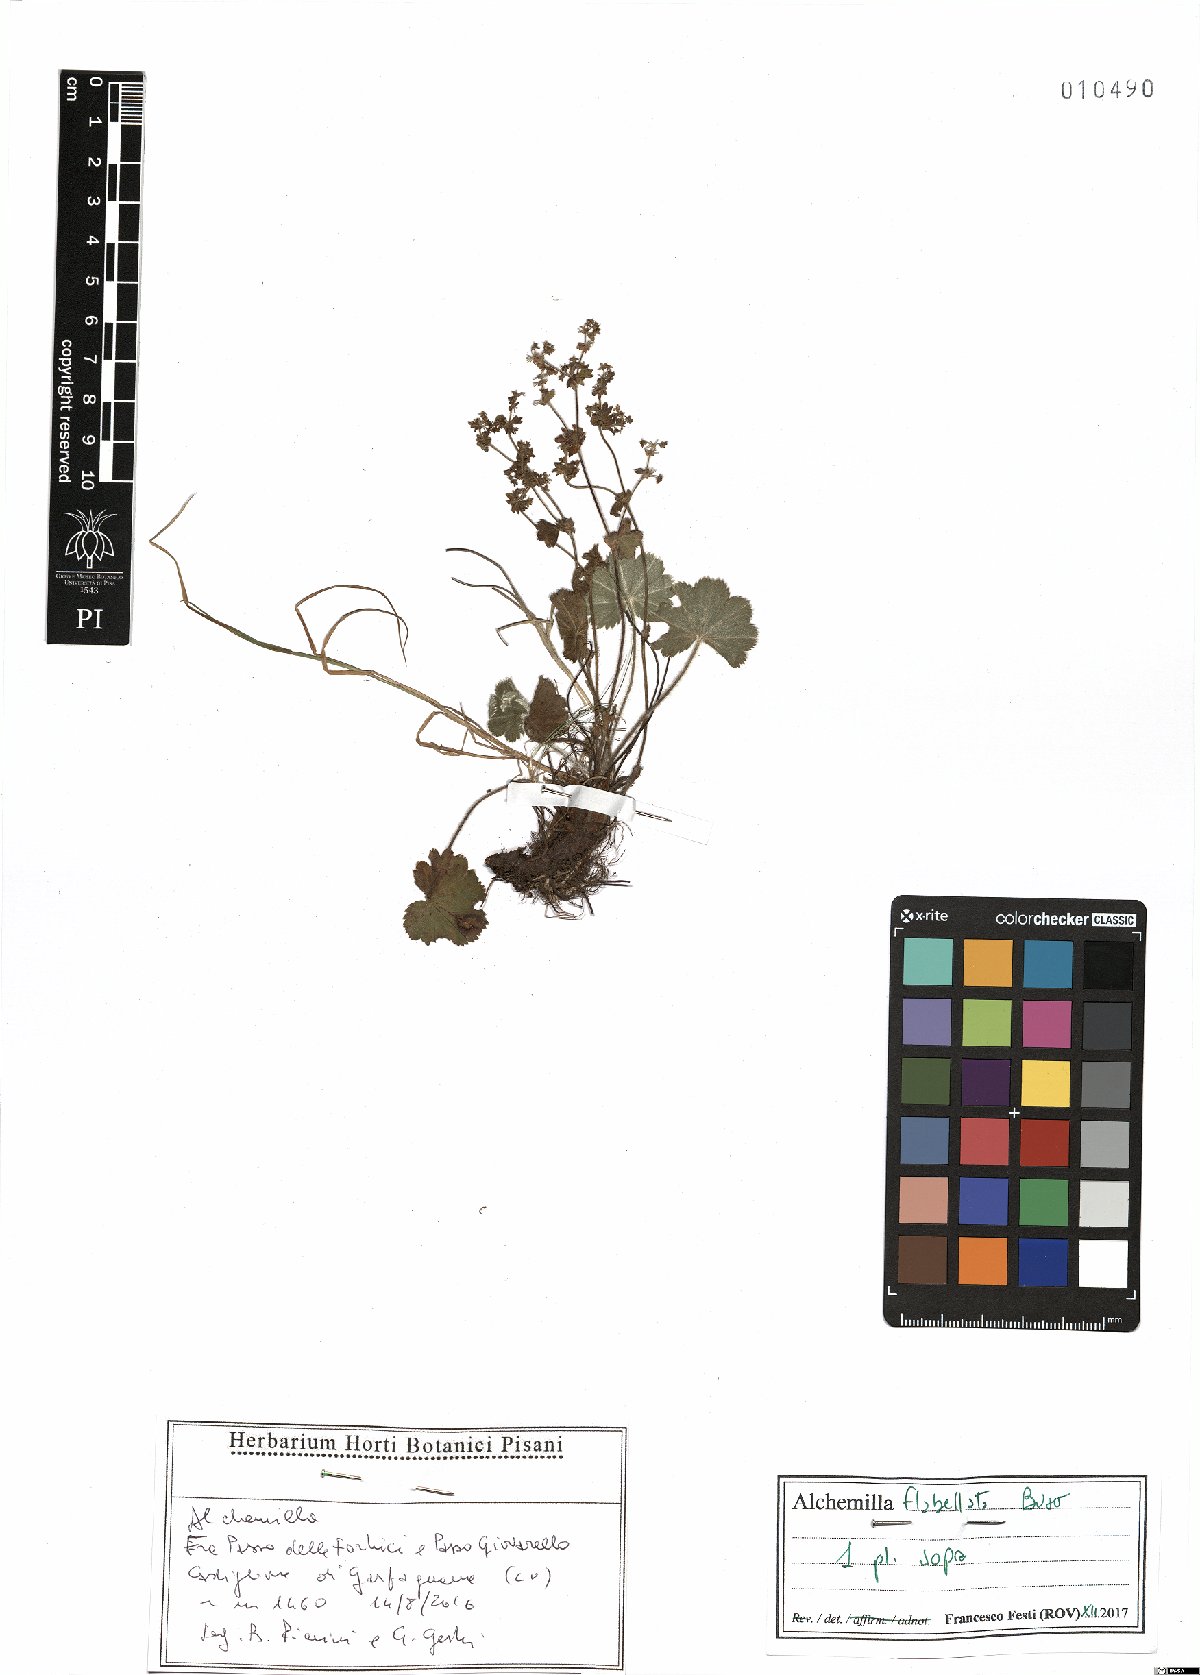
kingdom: Plantae
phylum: Tracheophyta
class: Magnoliopsida
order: Rosales
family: Rosaceae
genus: Alchemilla
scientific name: Alchemilla flabellata
